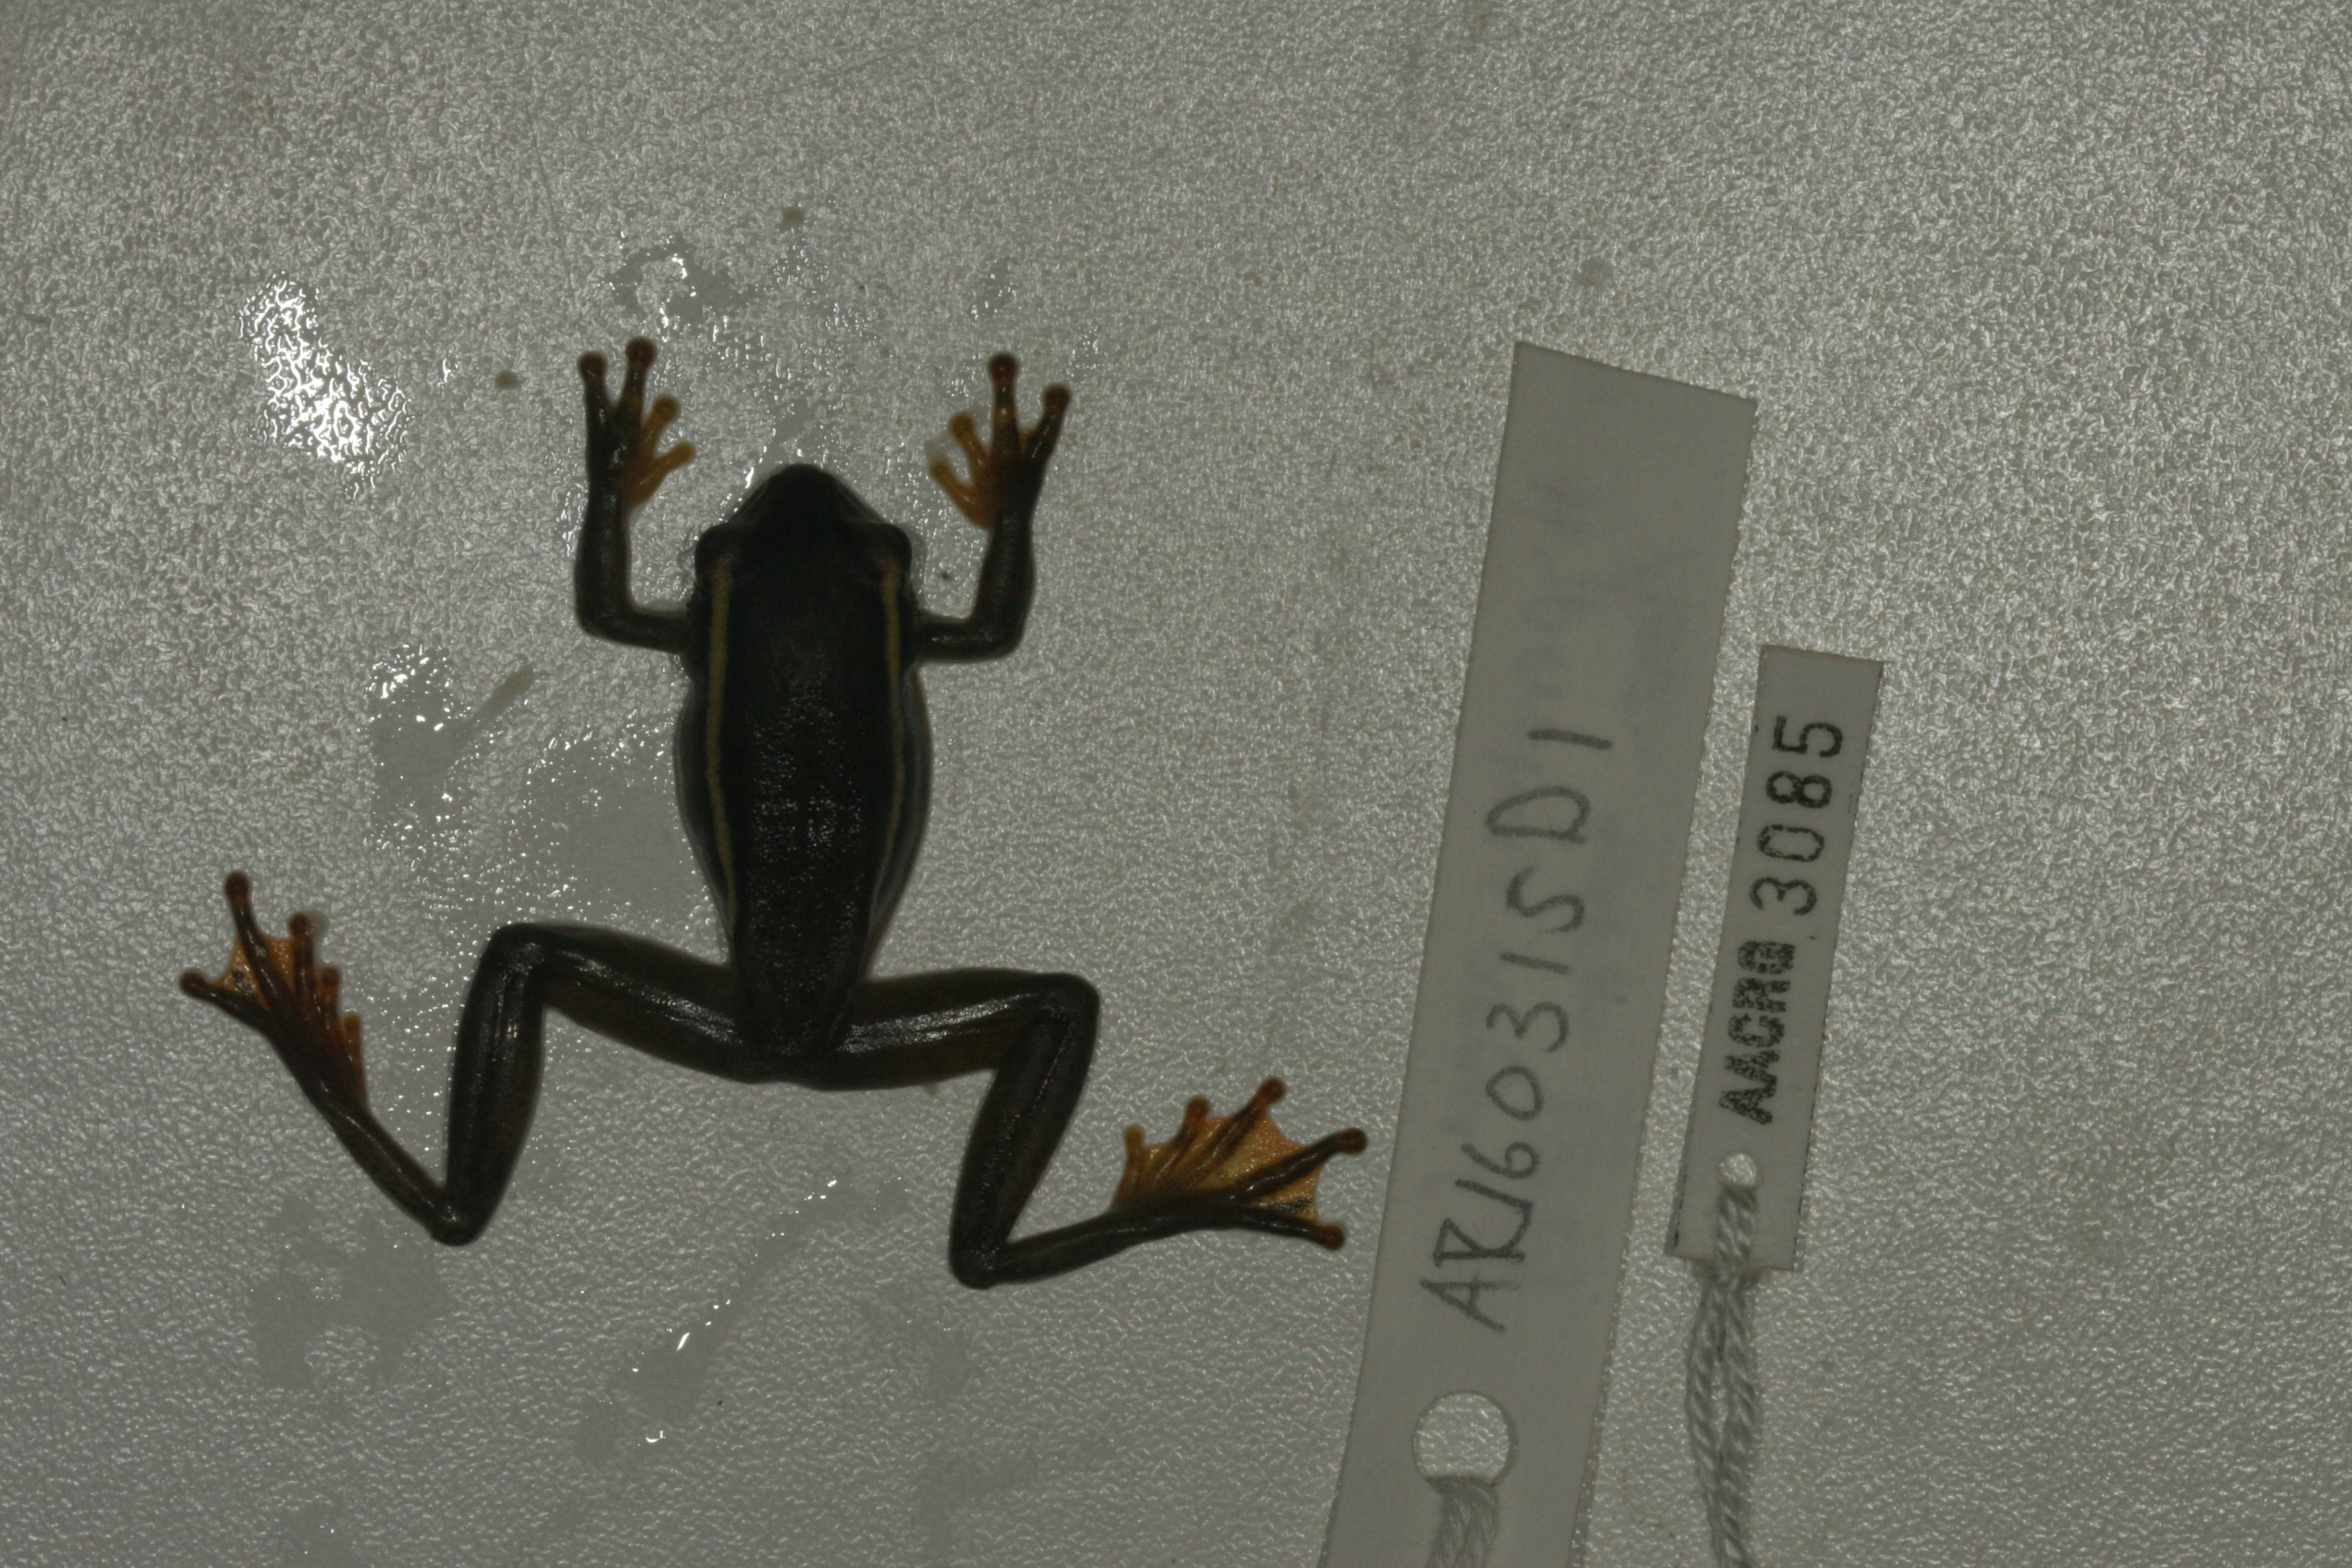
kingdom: Animalia
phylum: Chordata
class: Amphibia
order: Anura
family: Hyperoliidae
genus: Hyperolius
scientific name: Hyperolius argus
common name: Argus reed frog
